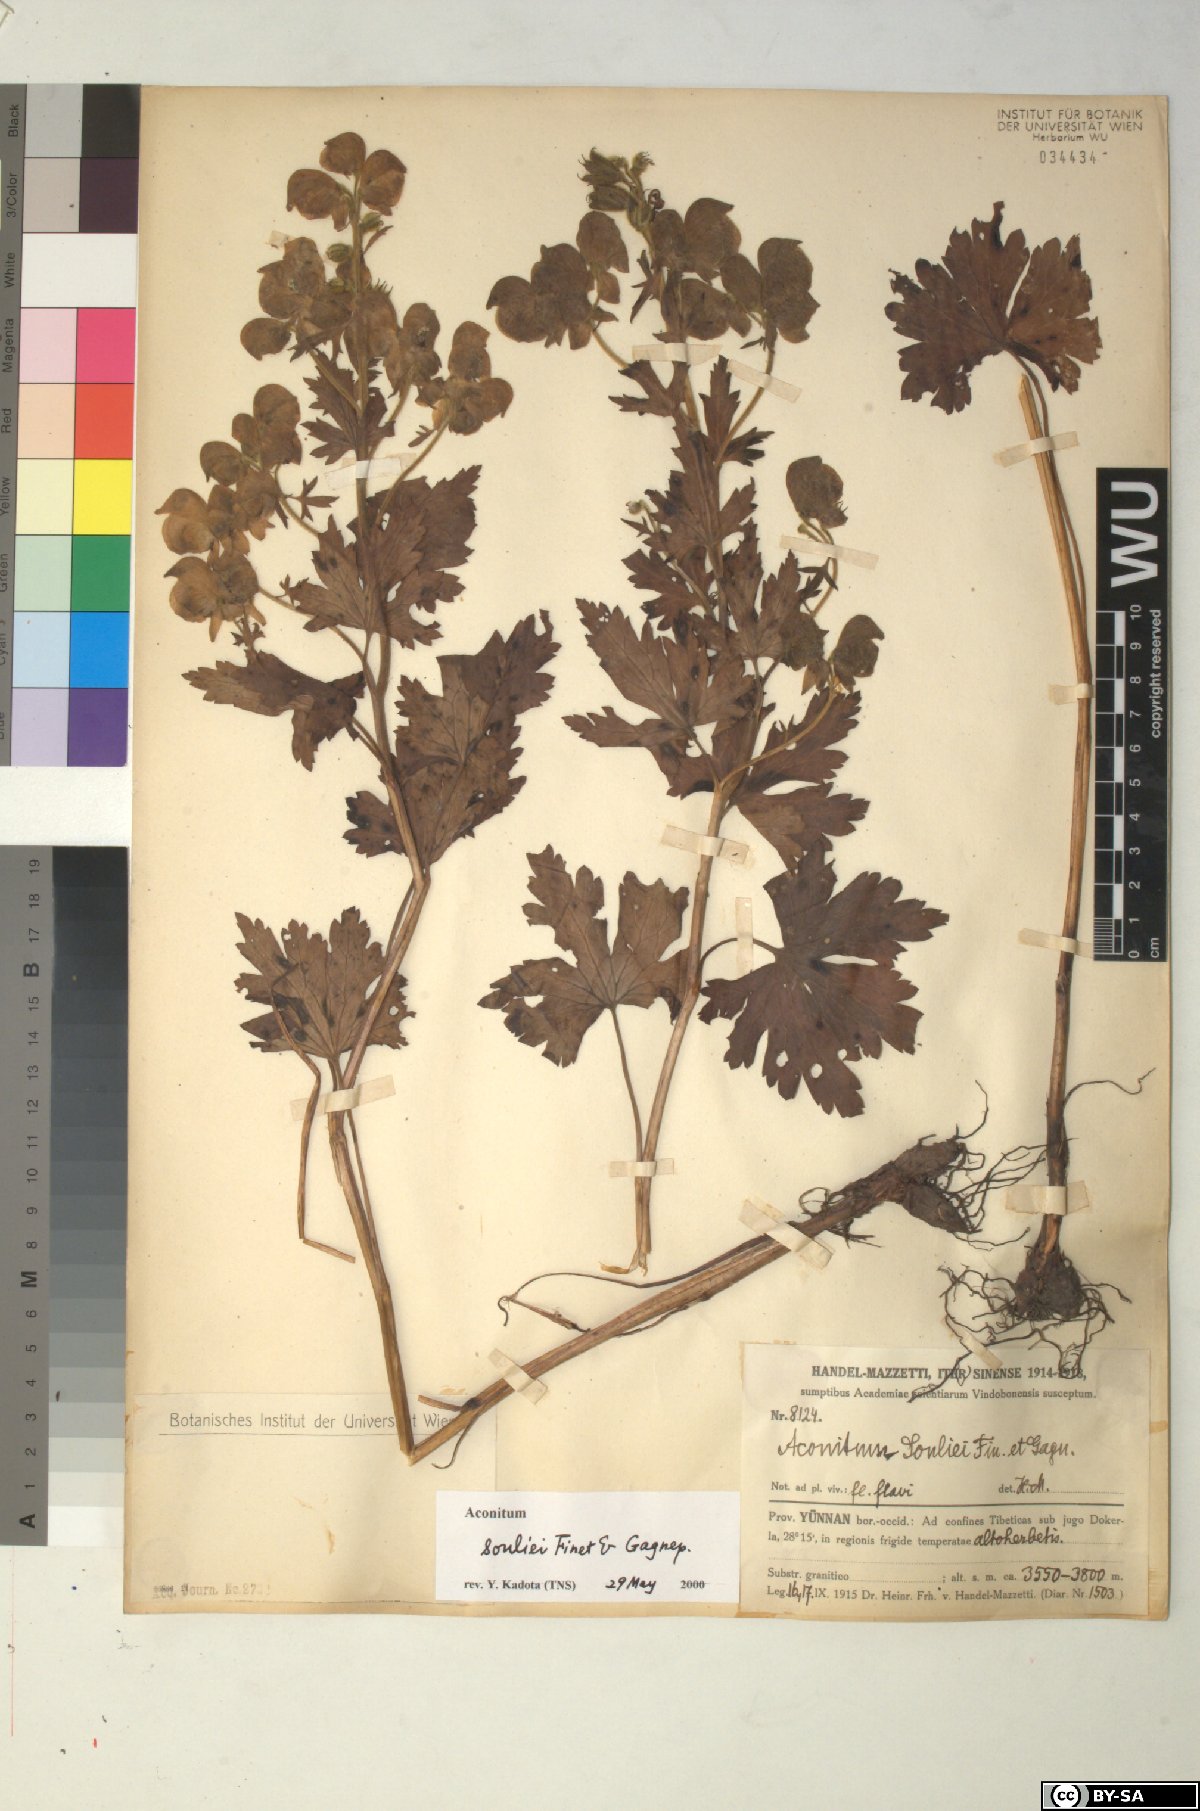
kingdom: Plantae
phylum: Tracheophyta
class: Magnoliopsida
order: Ranunculales
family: Ranunculaceae
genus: Aconitum
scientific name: Aconitum souliei
